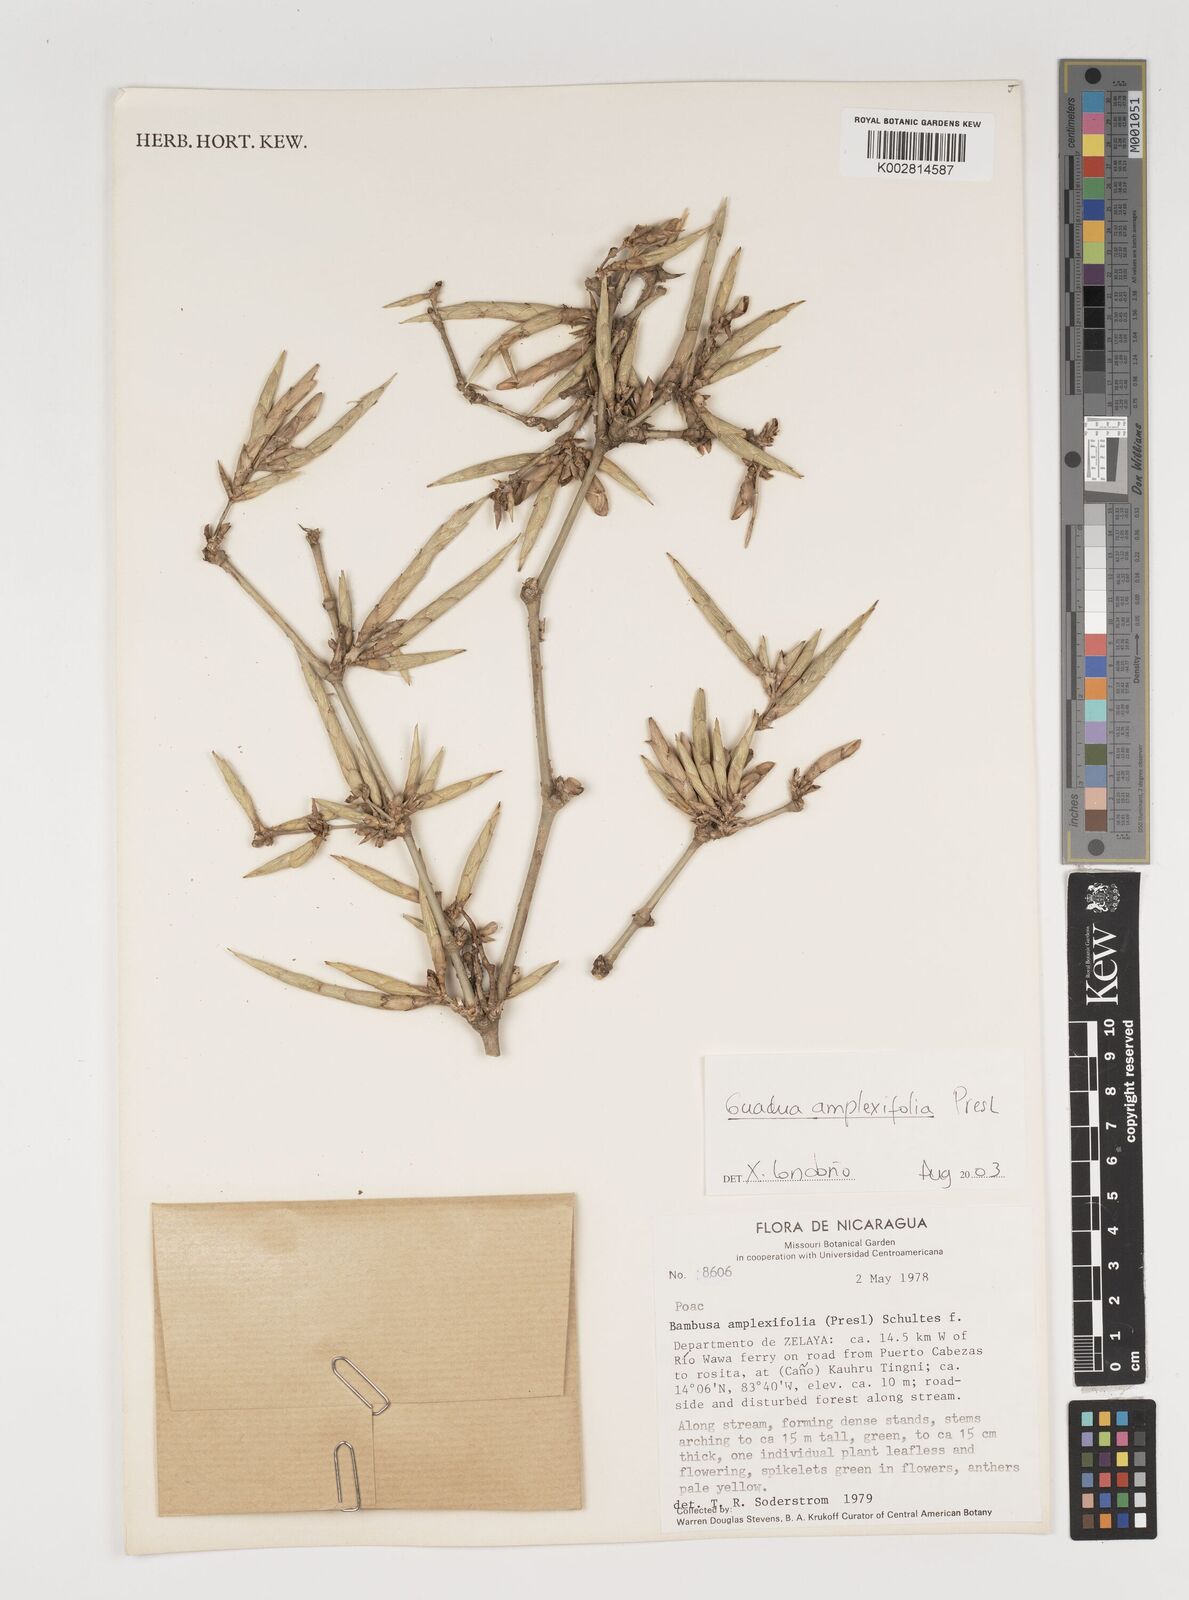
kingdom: Plantae
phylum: Tracheophyta
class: Liliopsida
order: Poales
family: Poaceae
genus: Guadua
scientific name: Guadua amplexifolia
